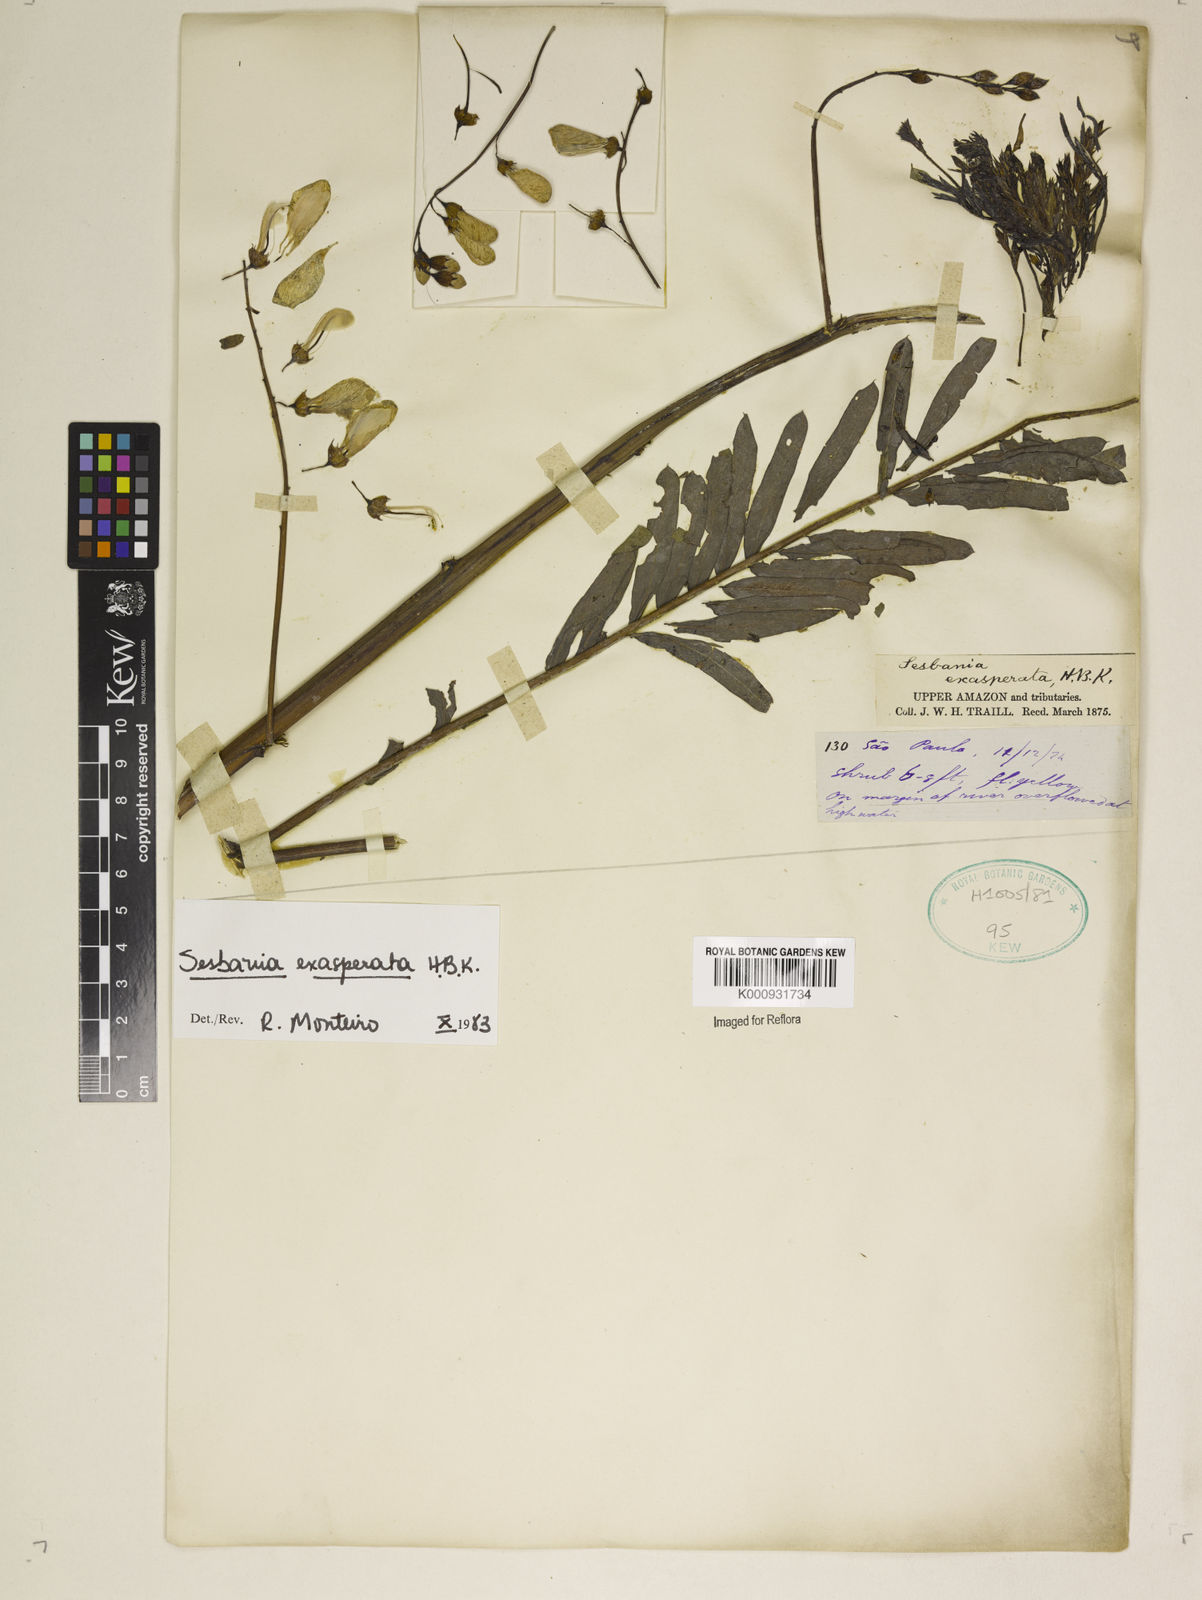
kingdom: Plantae
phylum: Tracheophyta
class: Magnoliopsida
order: Fabales
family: Fabaceae
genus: Sesbania
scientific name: Sesbania exasperata
